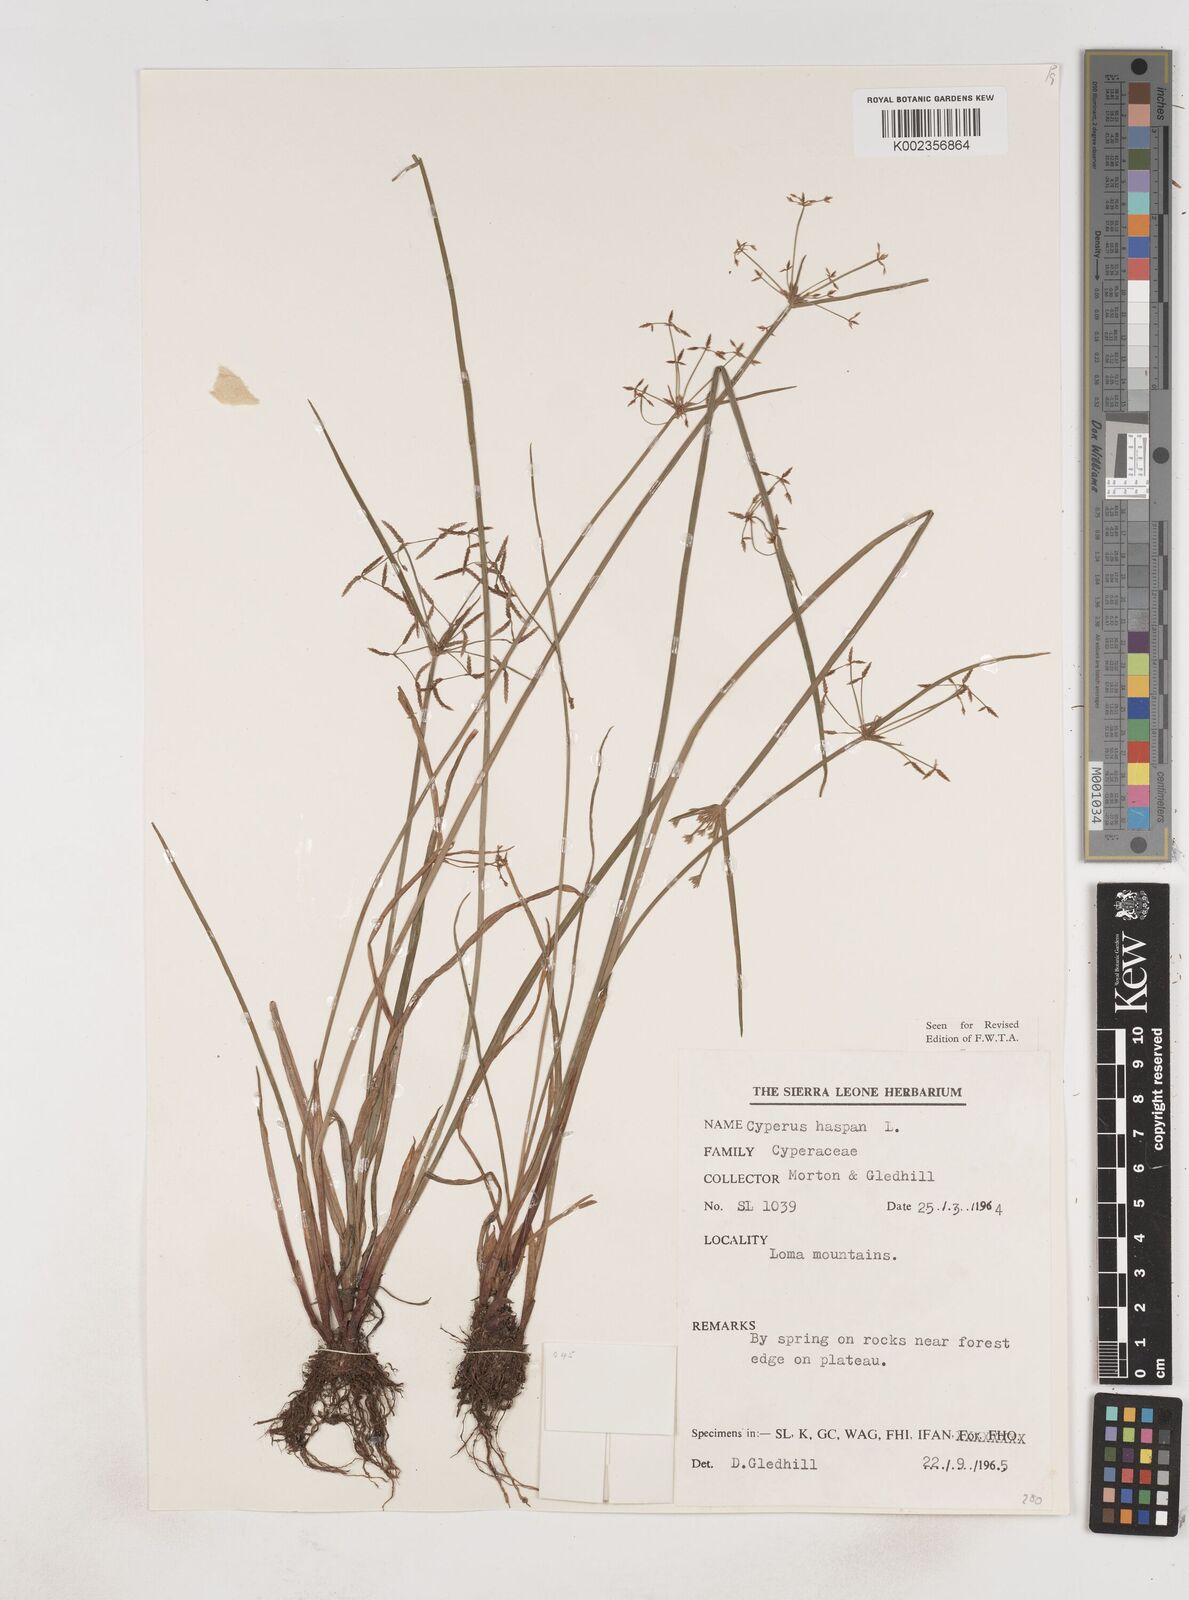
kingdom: Plantae
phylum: Tracheophyta
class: Liliopsida
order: Poales
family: Cyperaceae
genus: Cyperus
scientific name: Cyperus haspan
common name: Haspan flatsedge
